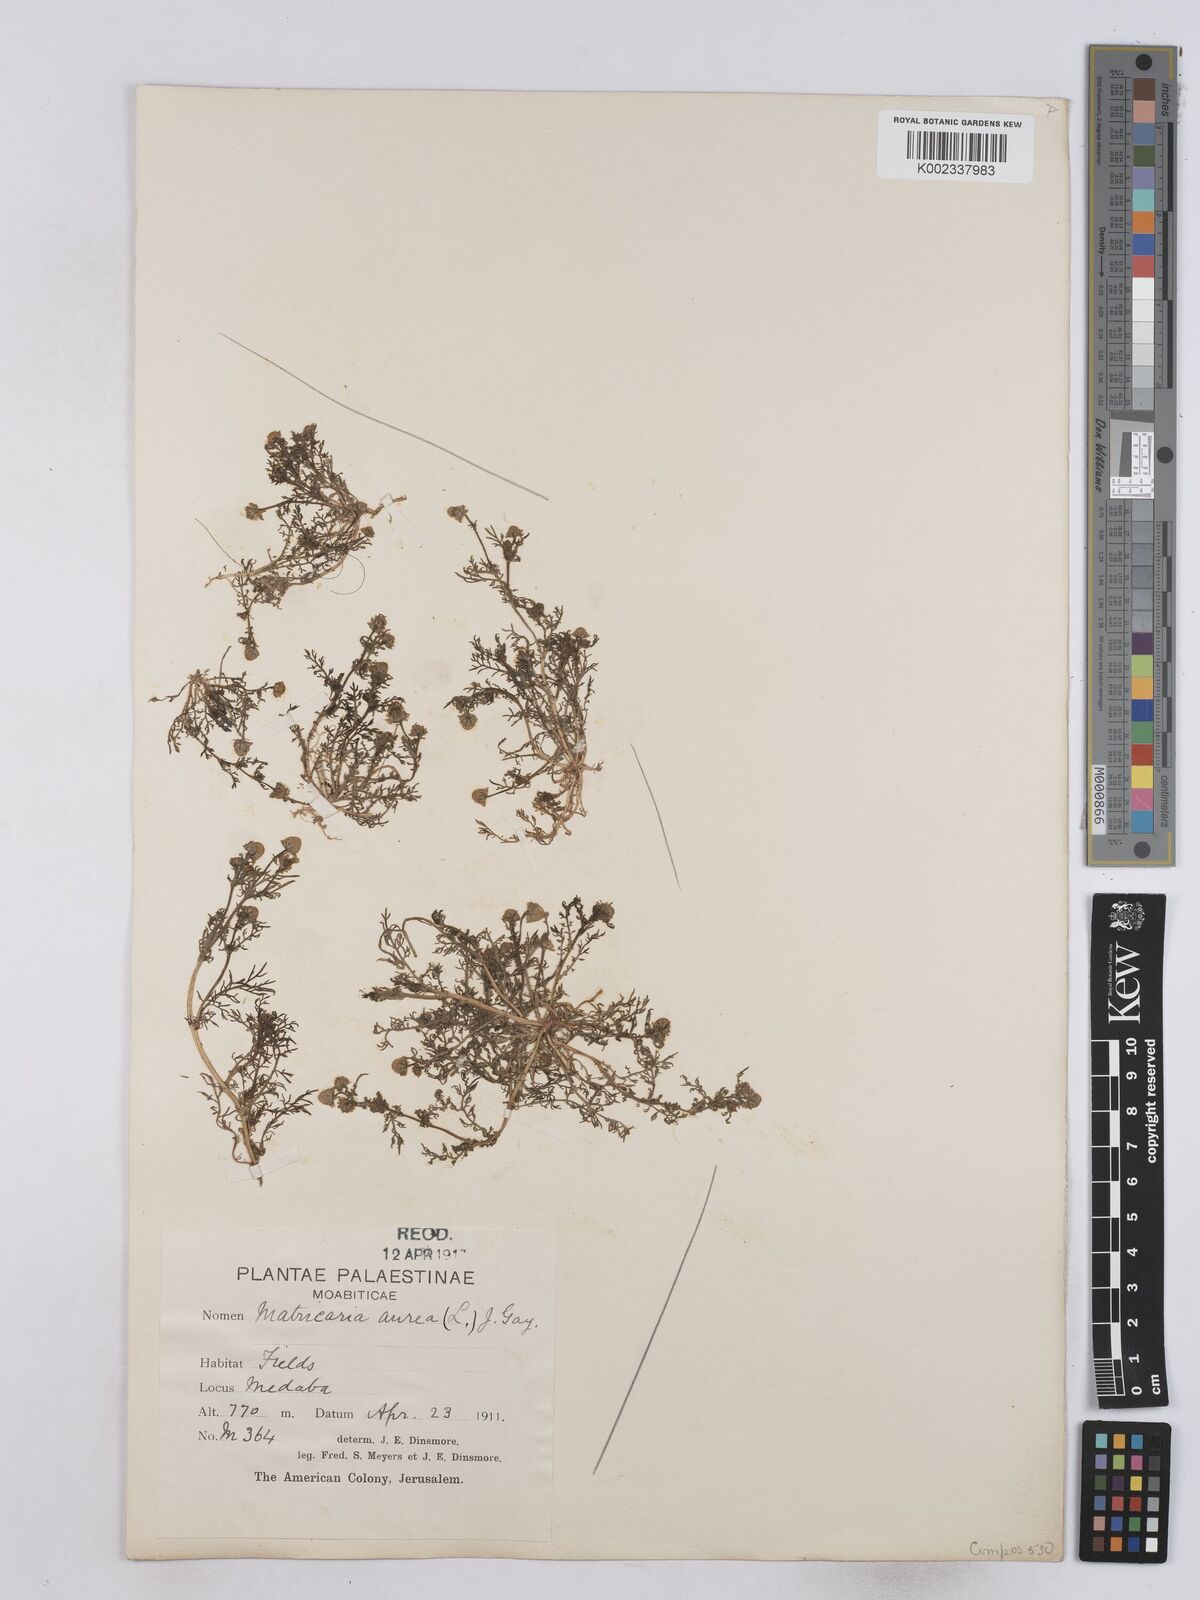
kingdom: Plantae
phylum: Tracheophyta
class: Magnoliopsida
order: Asterales
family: Asteraceae
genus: Matricaria
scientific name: Matricaria aurea
